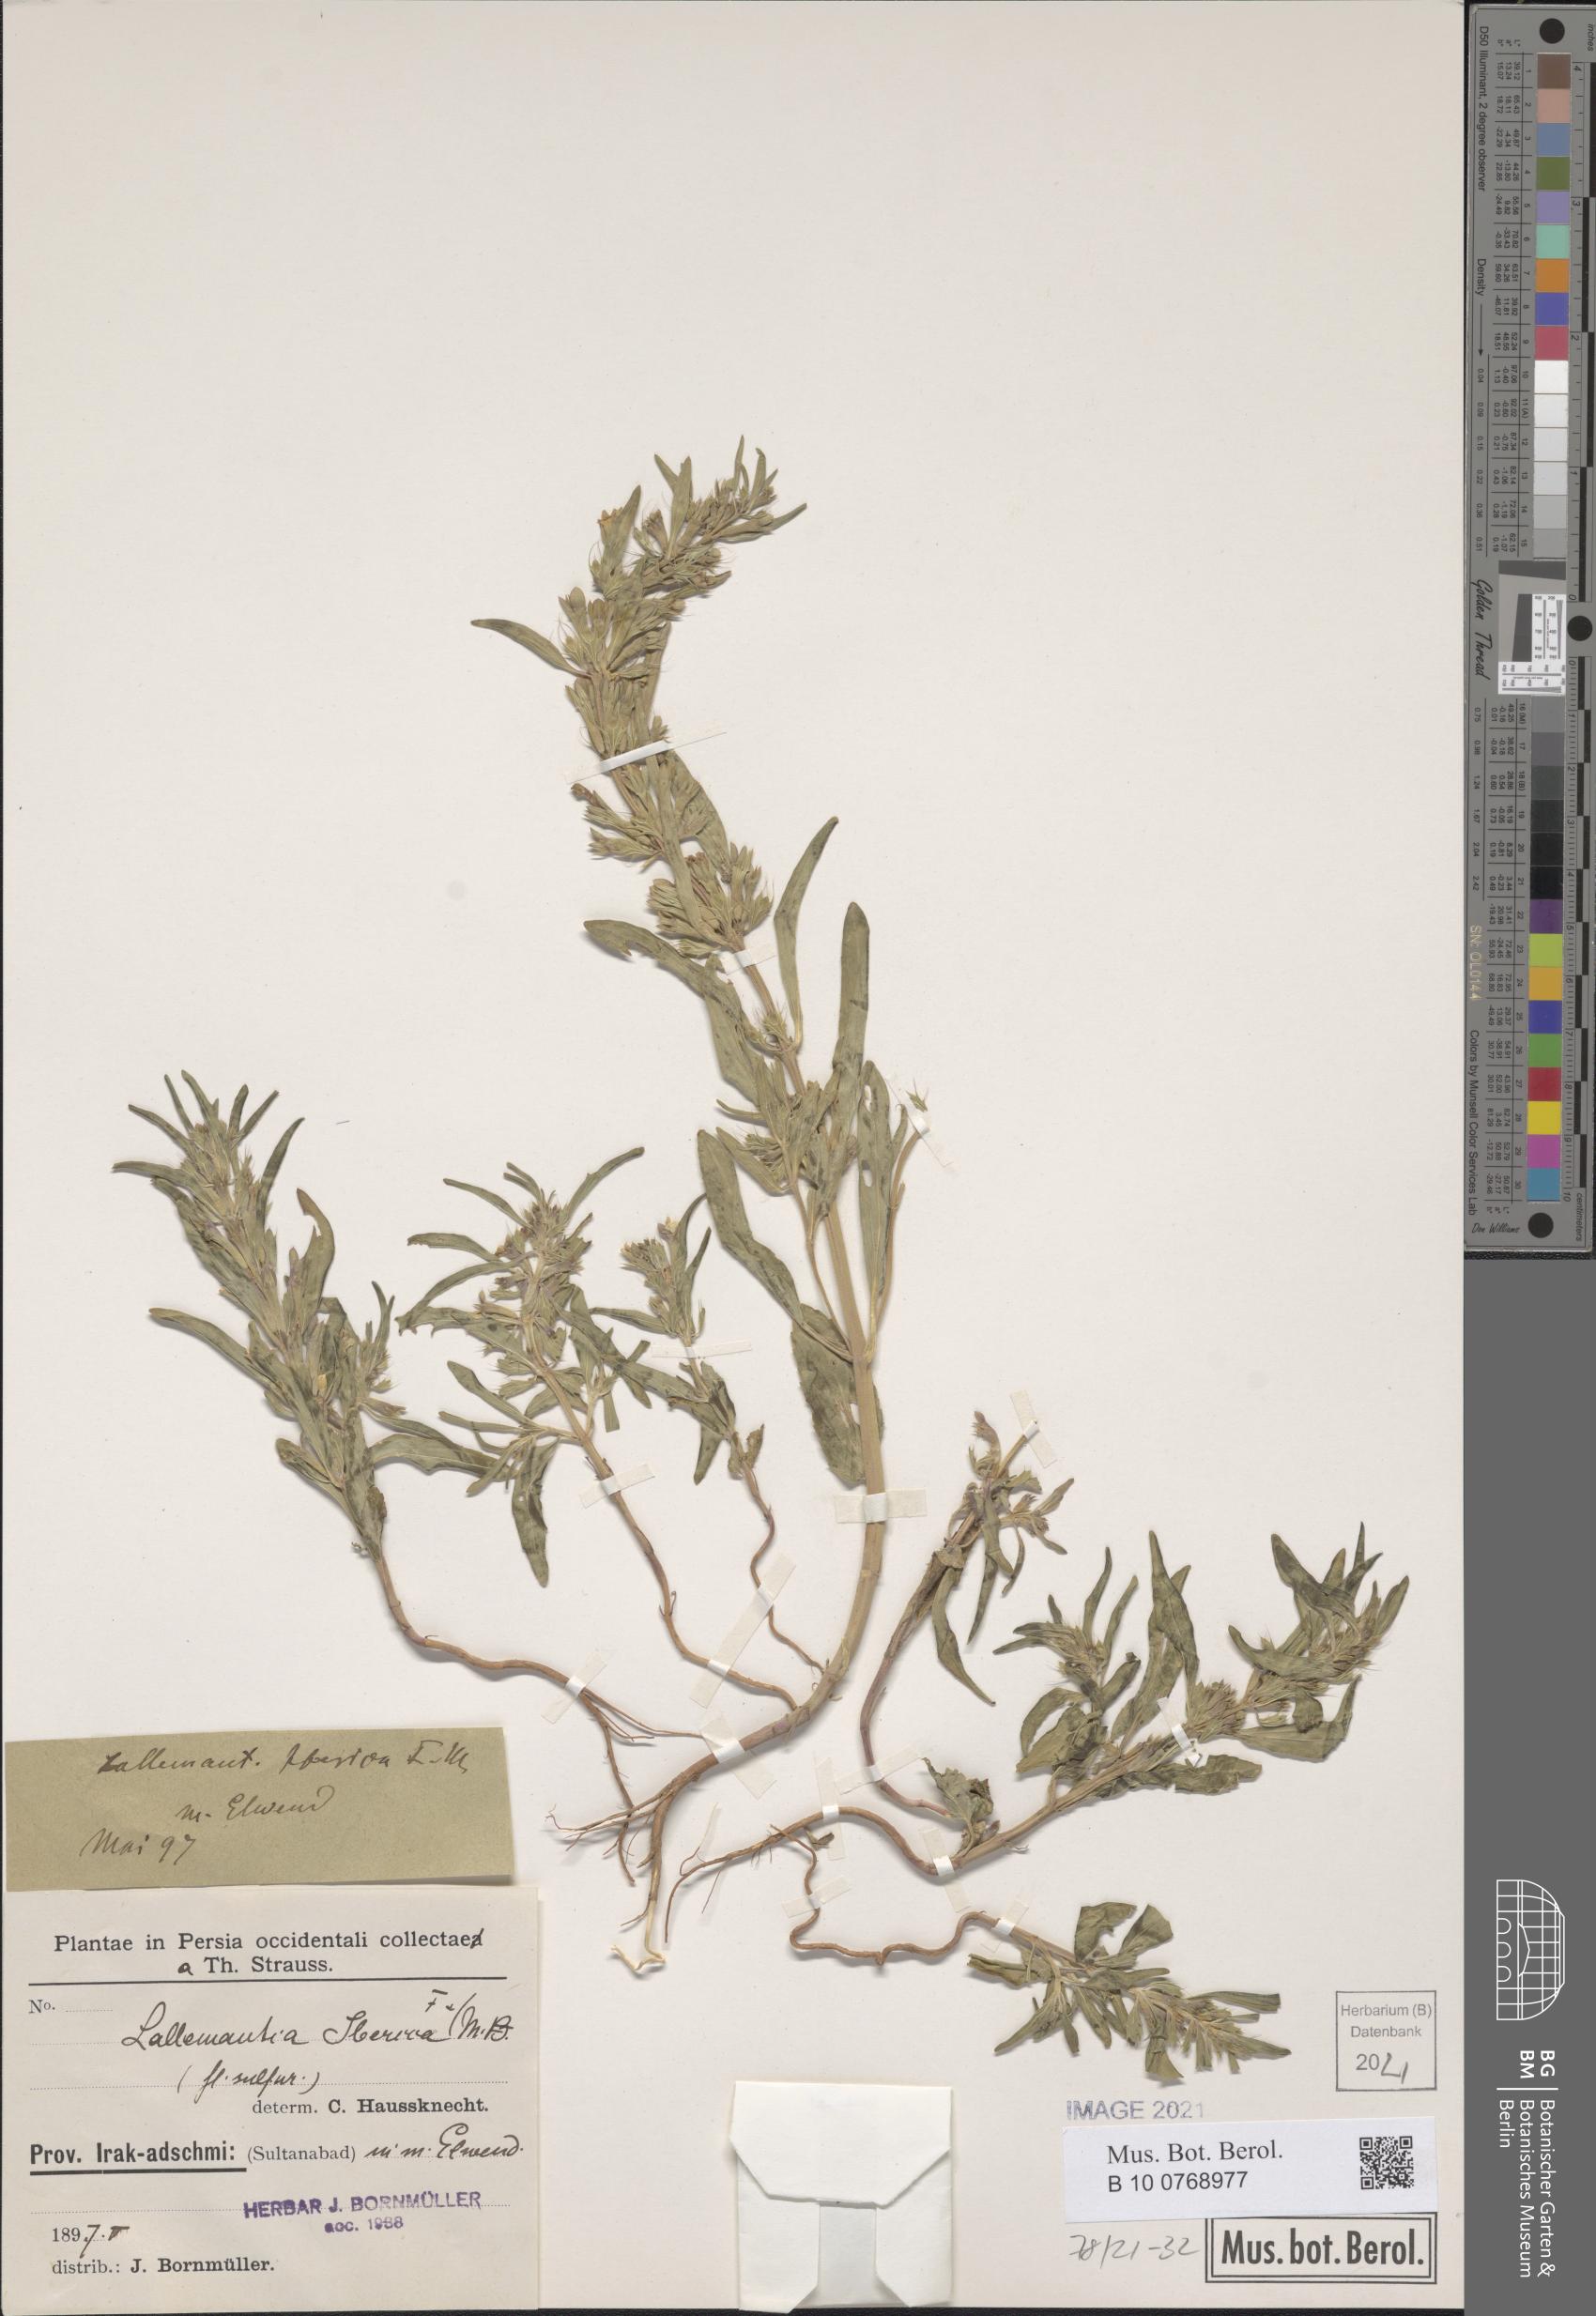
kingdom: Plantae
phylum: Tracheophyta
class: Magnoliopsida
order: Lamiales
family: Lamiaceae
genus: Lallemantia
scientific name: Lallemantia iberica
